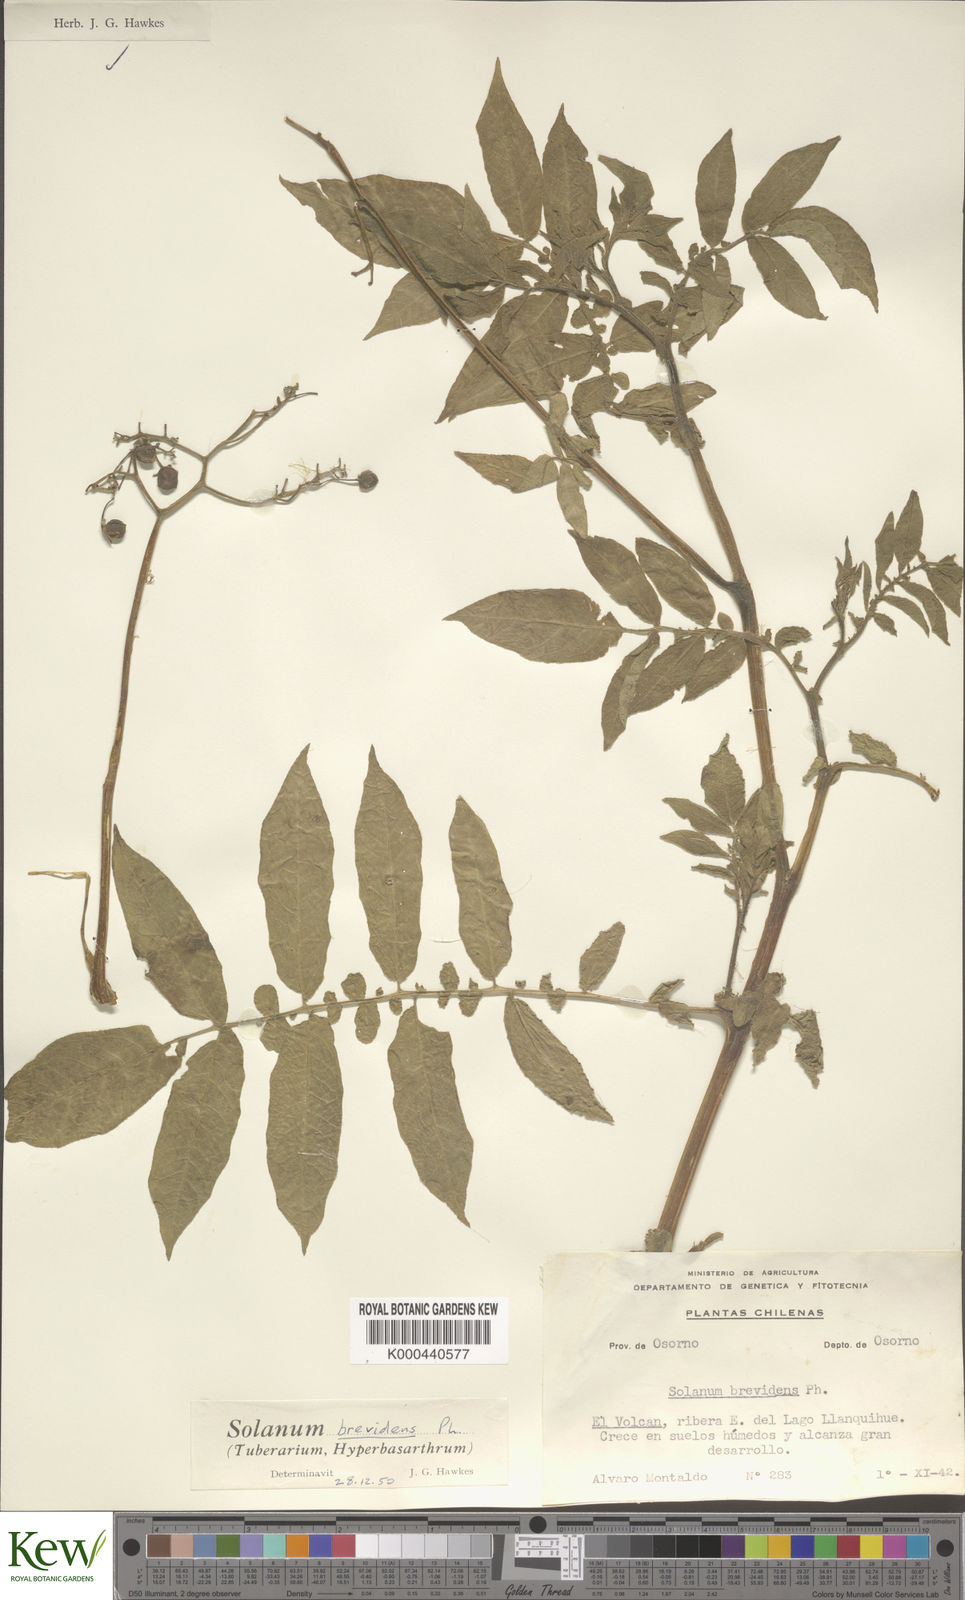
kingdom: Plantae
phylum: Tracheophyta
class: Magnoliopsida
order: Solanales
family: Solanaceae
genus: Solanum
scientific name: Solanum palustre
